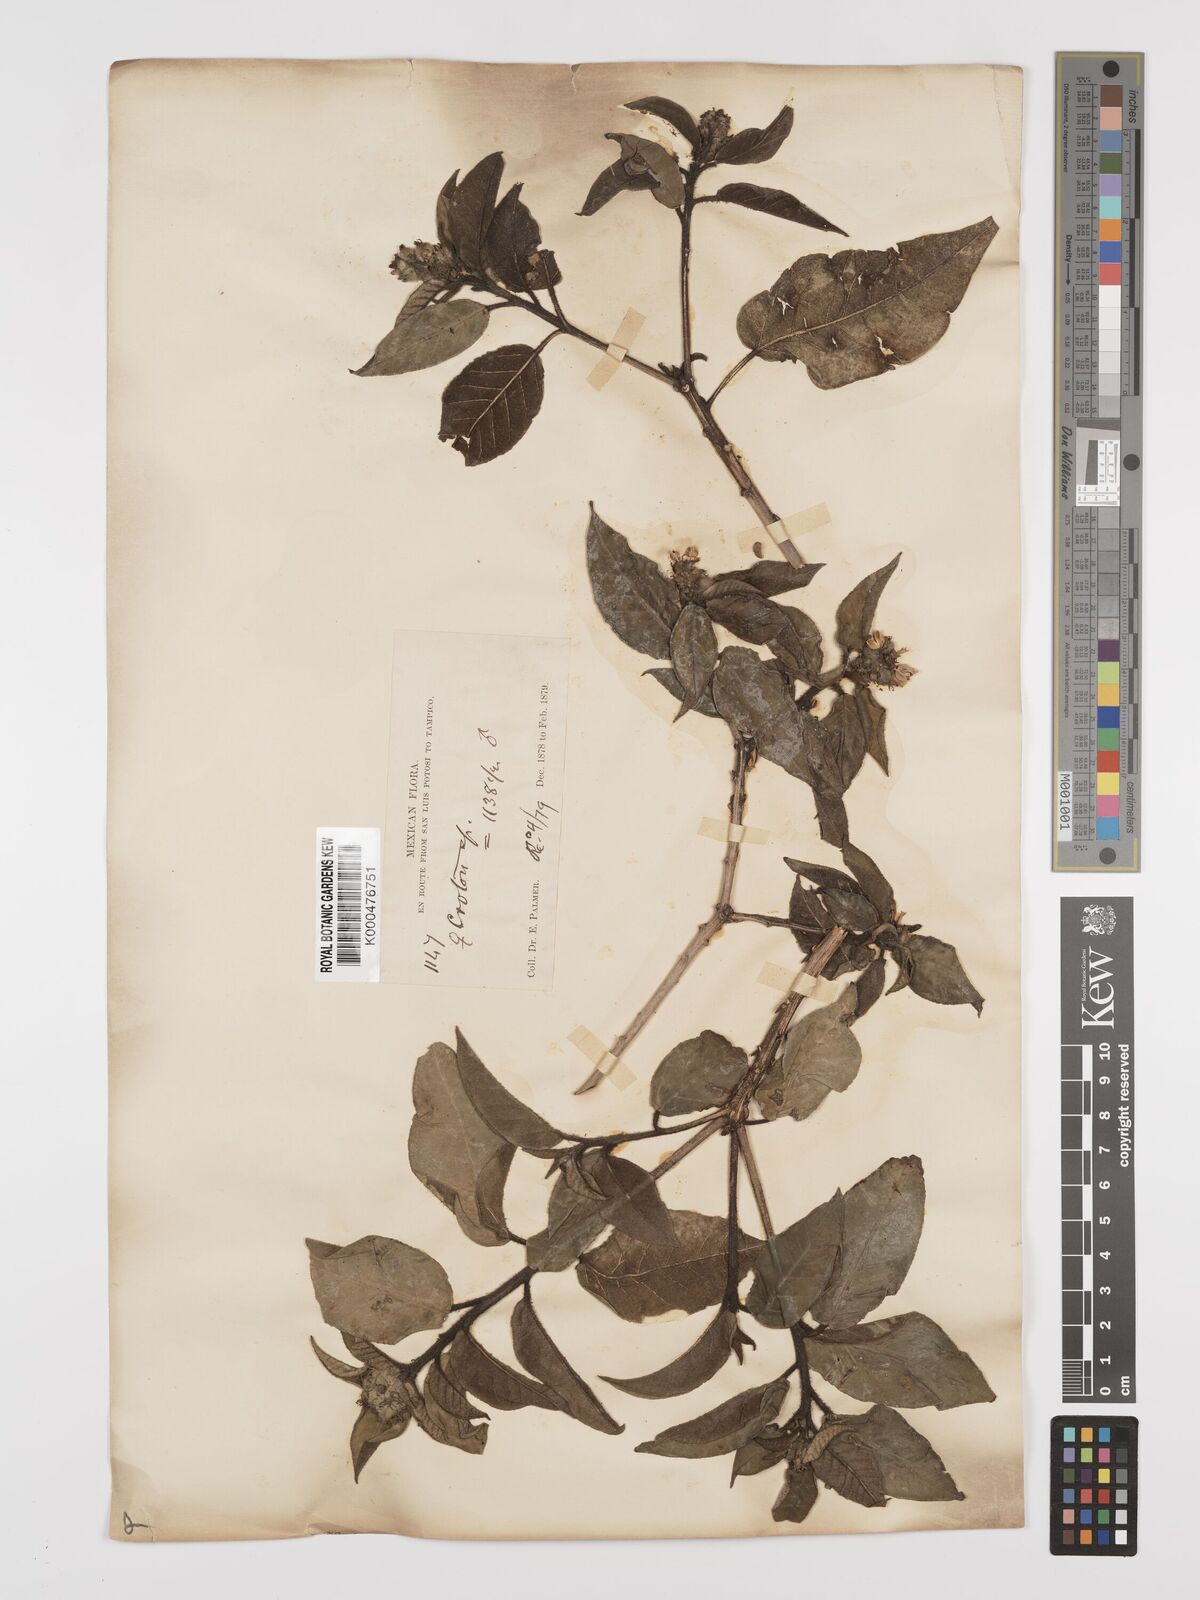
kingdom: Plantae
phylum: Tracheophyta
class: Magnoliopsida
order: Malpighiales
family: Euphorbiaceae
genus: Croton
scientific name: Croton
